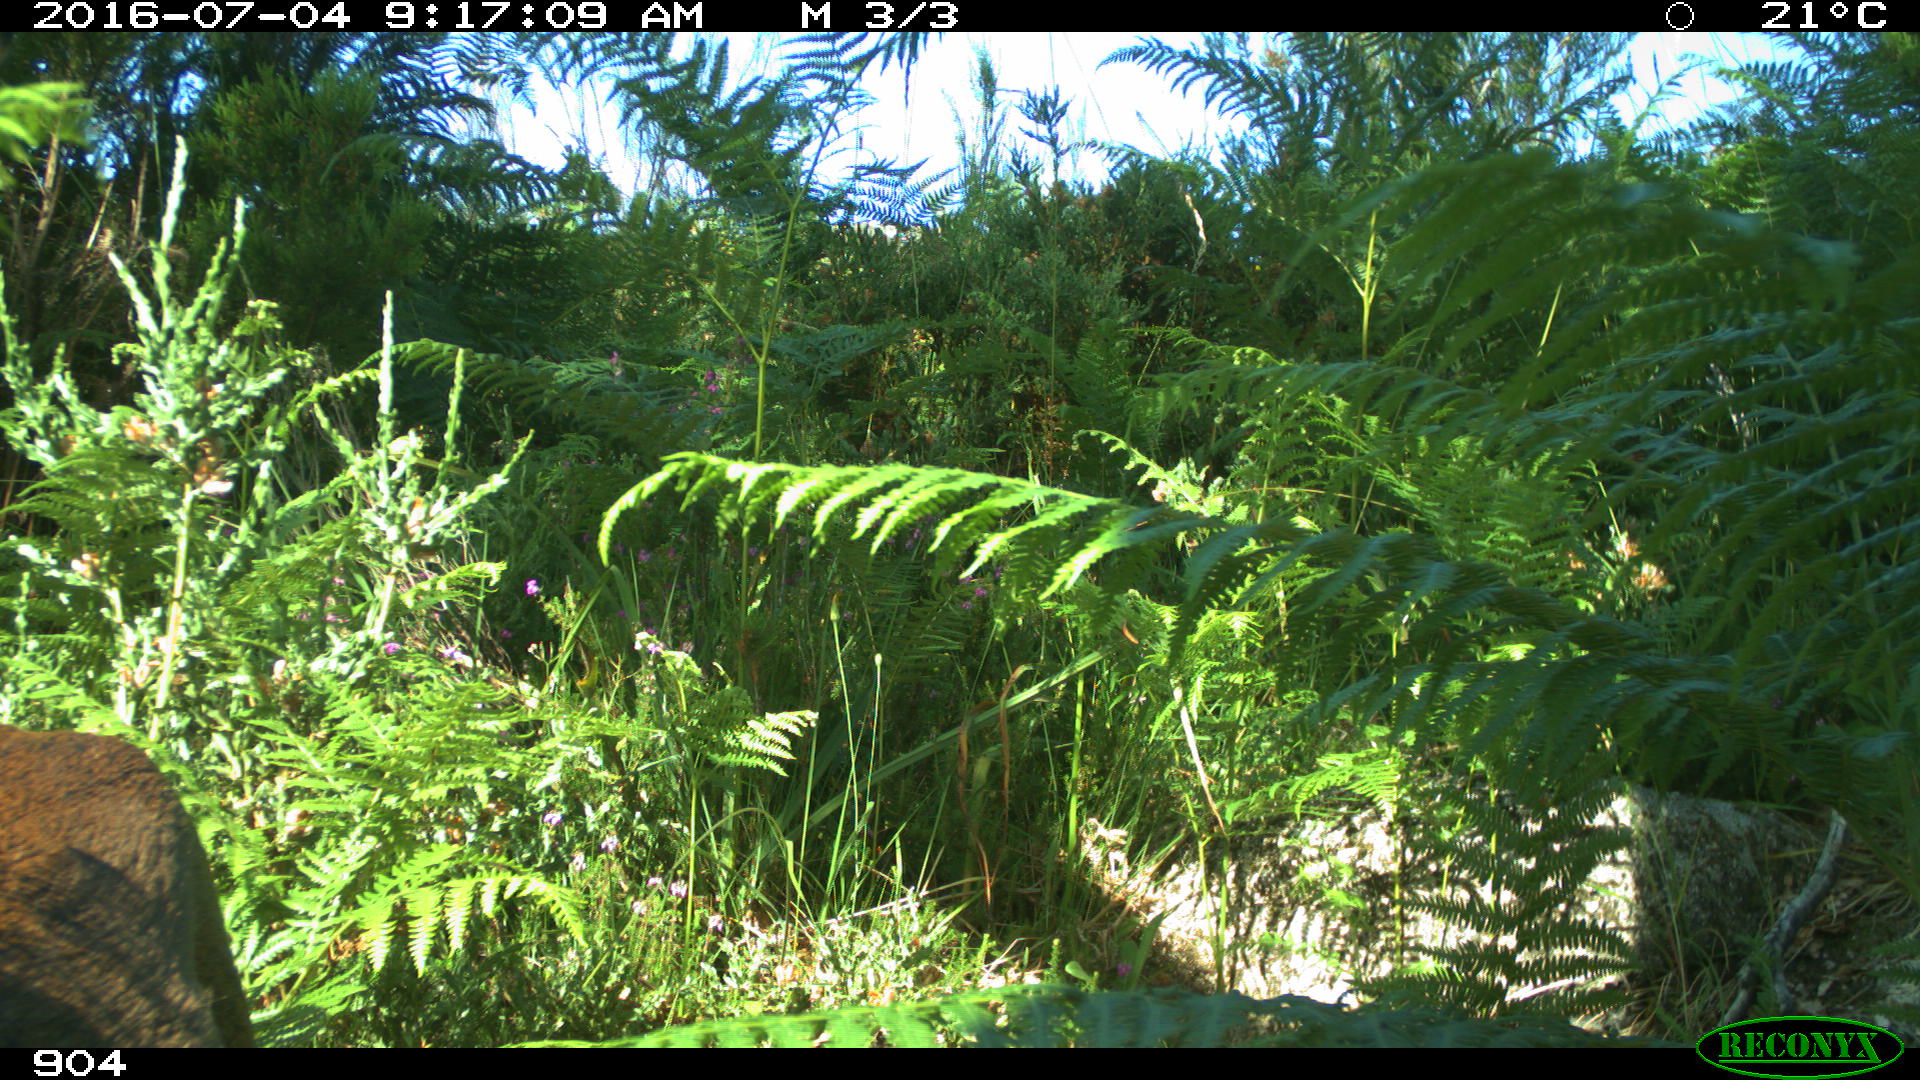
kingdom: Animalia
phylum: Chordata
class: Mammalia
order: Artiodactyla
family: Cervidae
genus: Capreolus
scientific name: Capreolus capreolus
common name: Western roe deer
